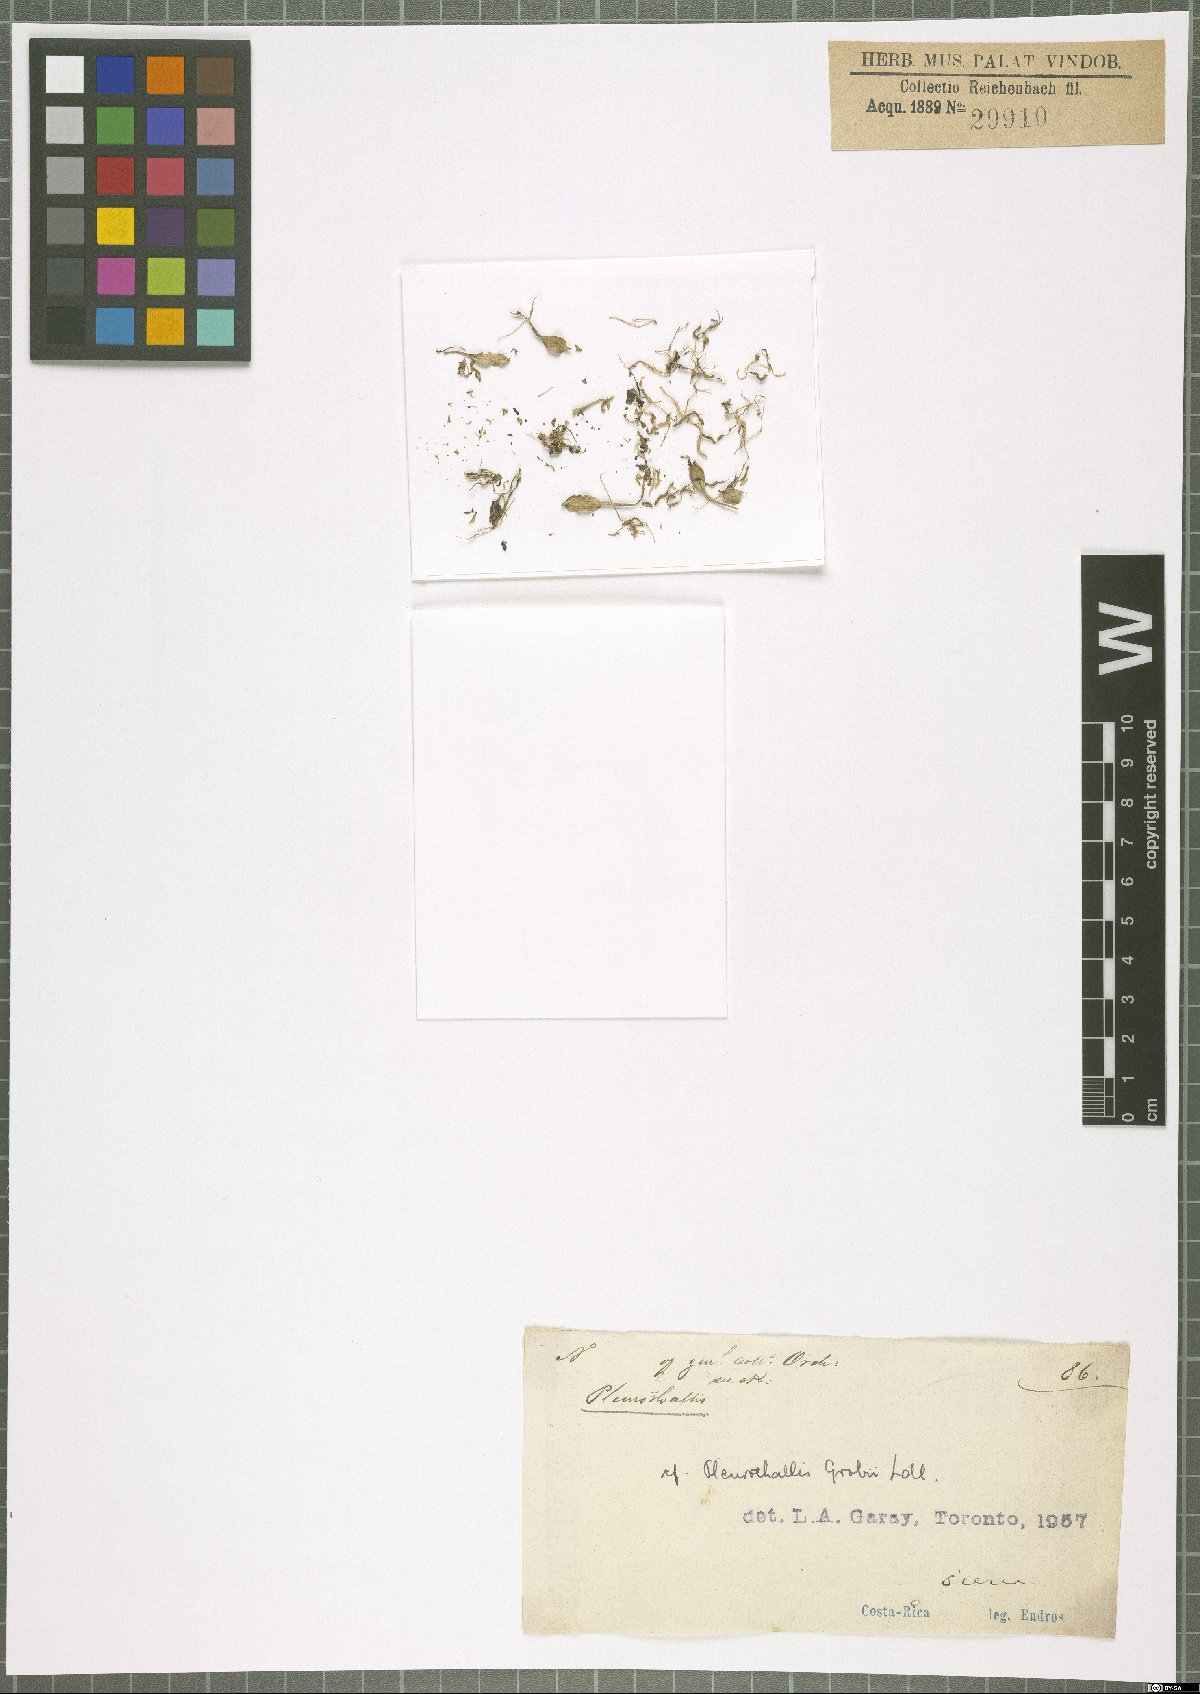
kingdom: Plantae
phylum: Tracheophyta
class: Liliopsida
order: Asparagales
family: Orchidaceae
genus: Specklinia
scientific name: Specklinia grobyi
